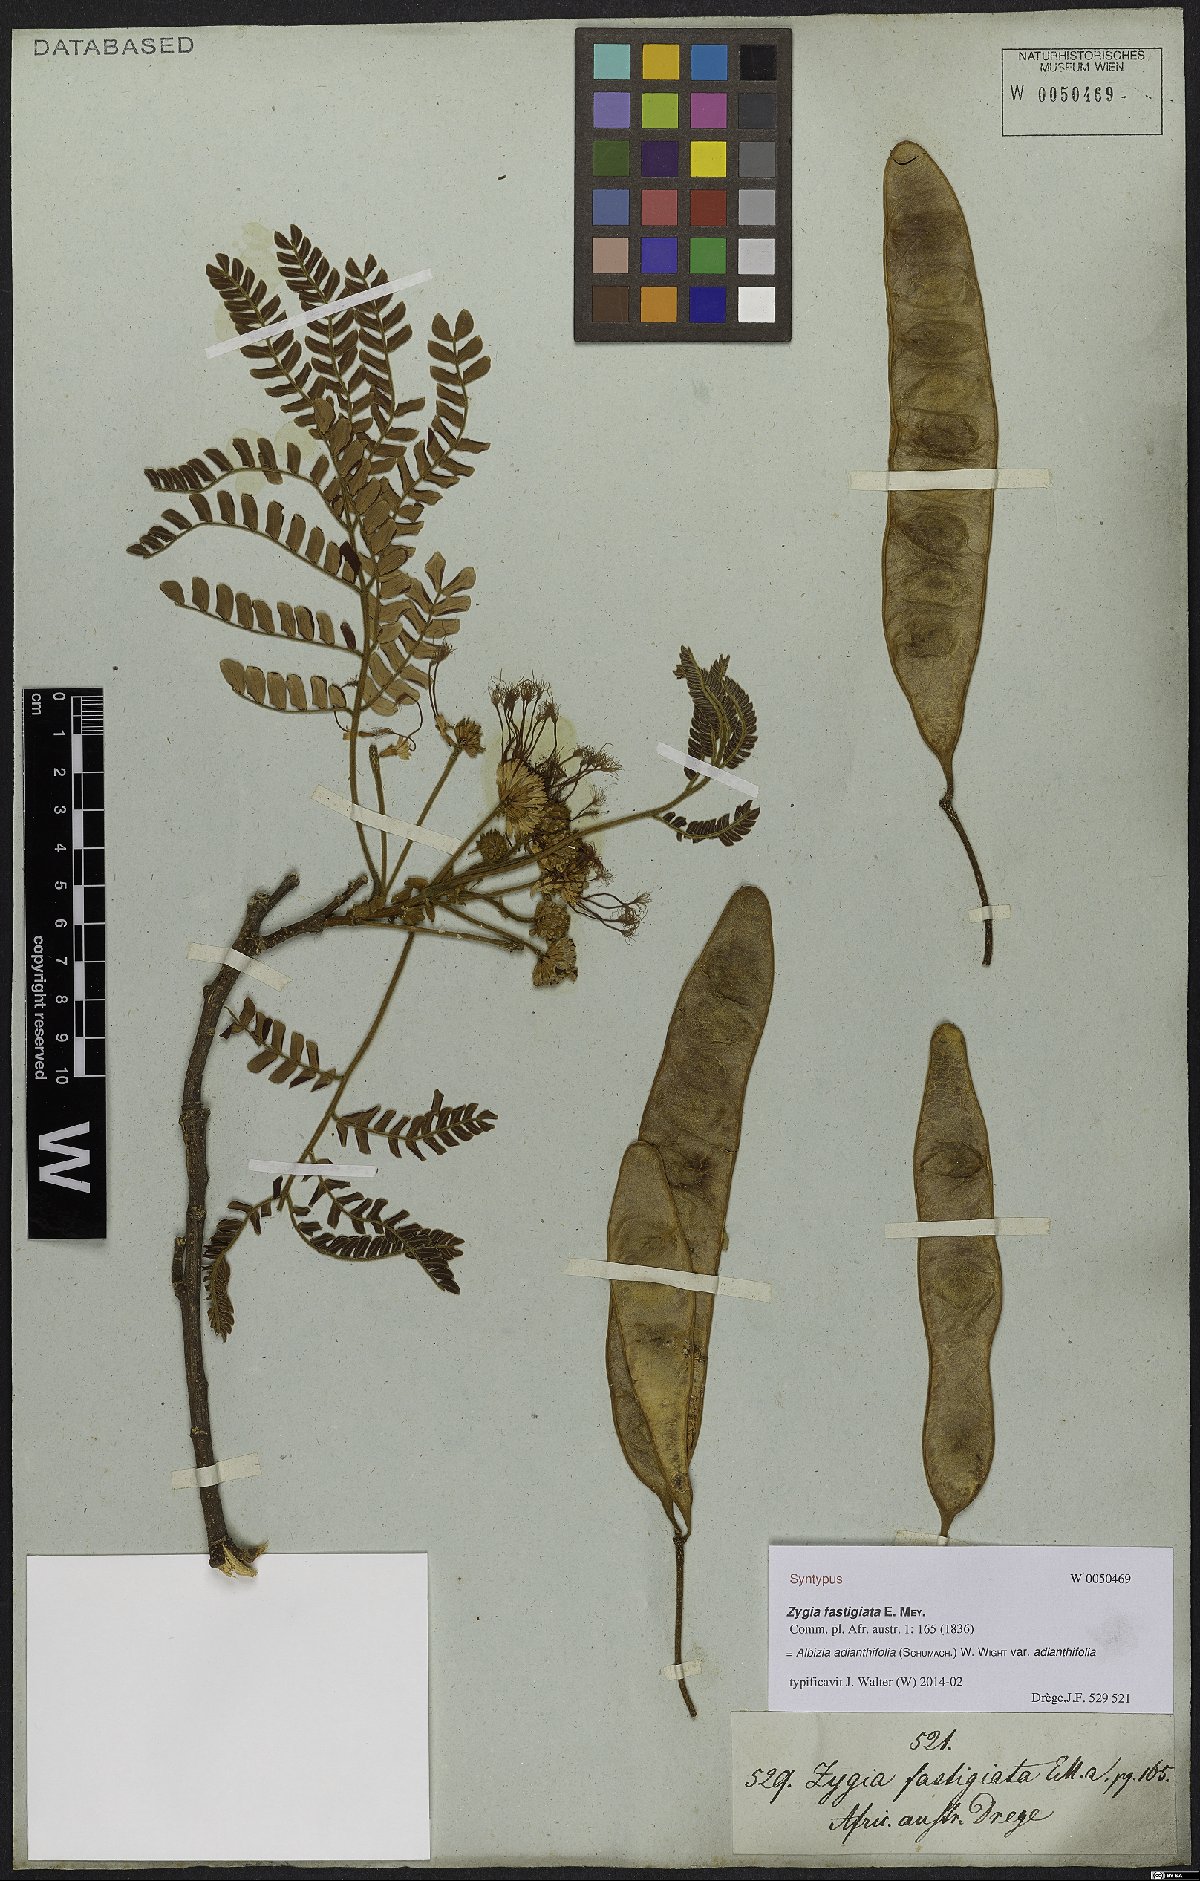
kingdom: Plantae
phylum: Tracheophyta
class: Magnoliopsida
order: Fabales
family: Fabaceae
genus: Albizia
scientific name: Albizia adianthifolia
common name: West african albizia
